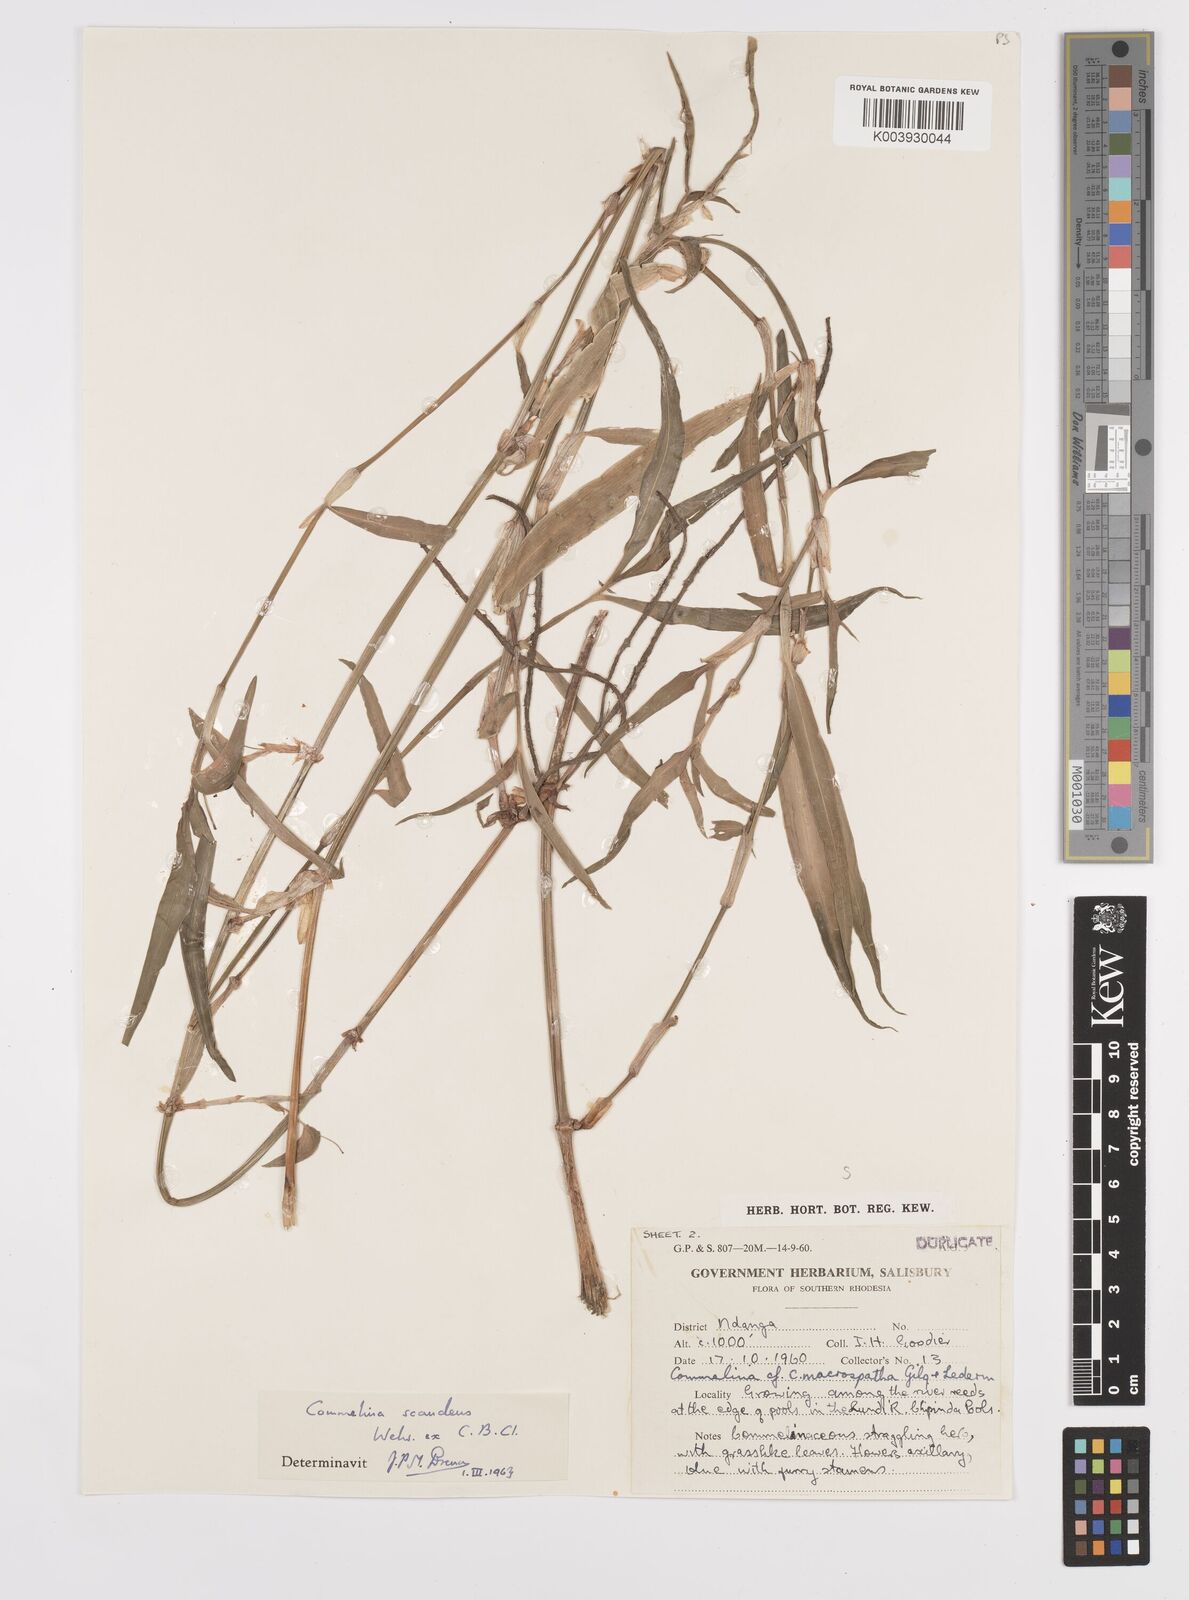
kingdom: Plantae
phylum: Tracheophyta
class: Liliopsida
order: Commelinales
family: Commelinaceae
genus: Commelina
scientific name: Commelina diffusa
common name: Climbing dayflower
